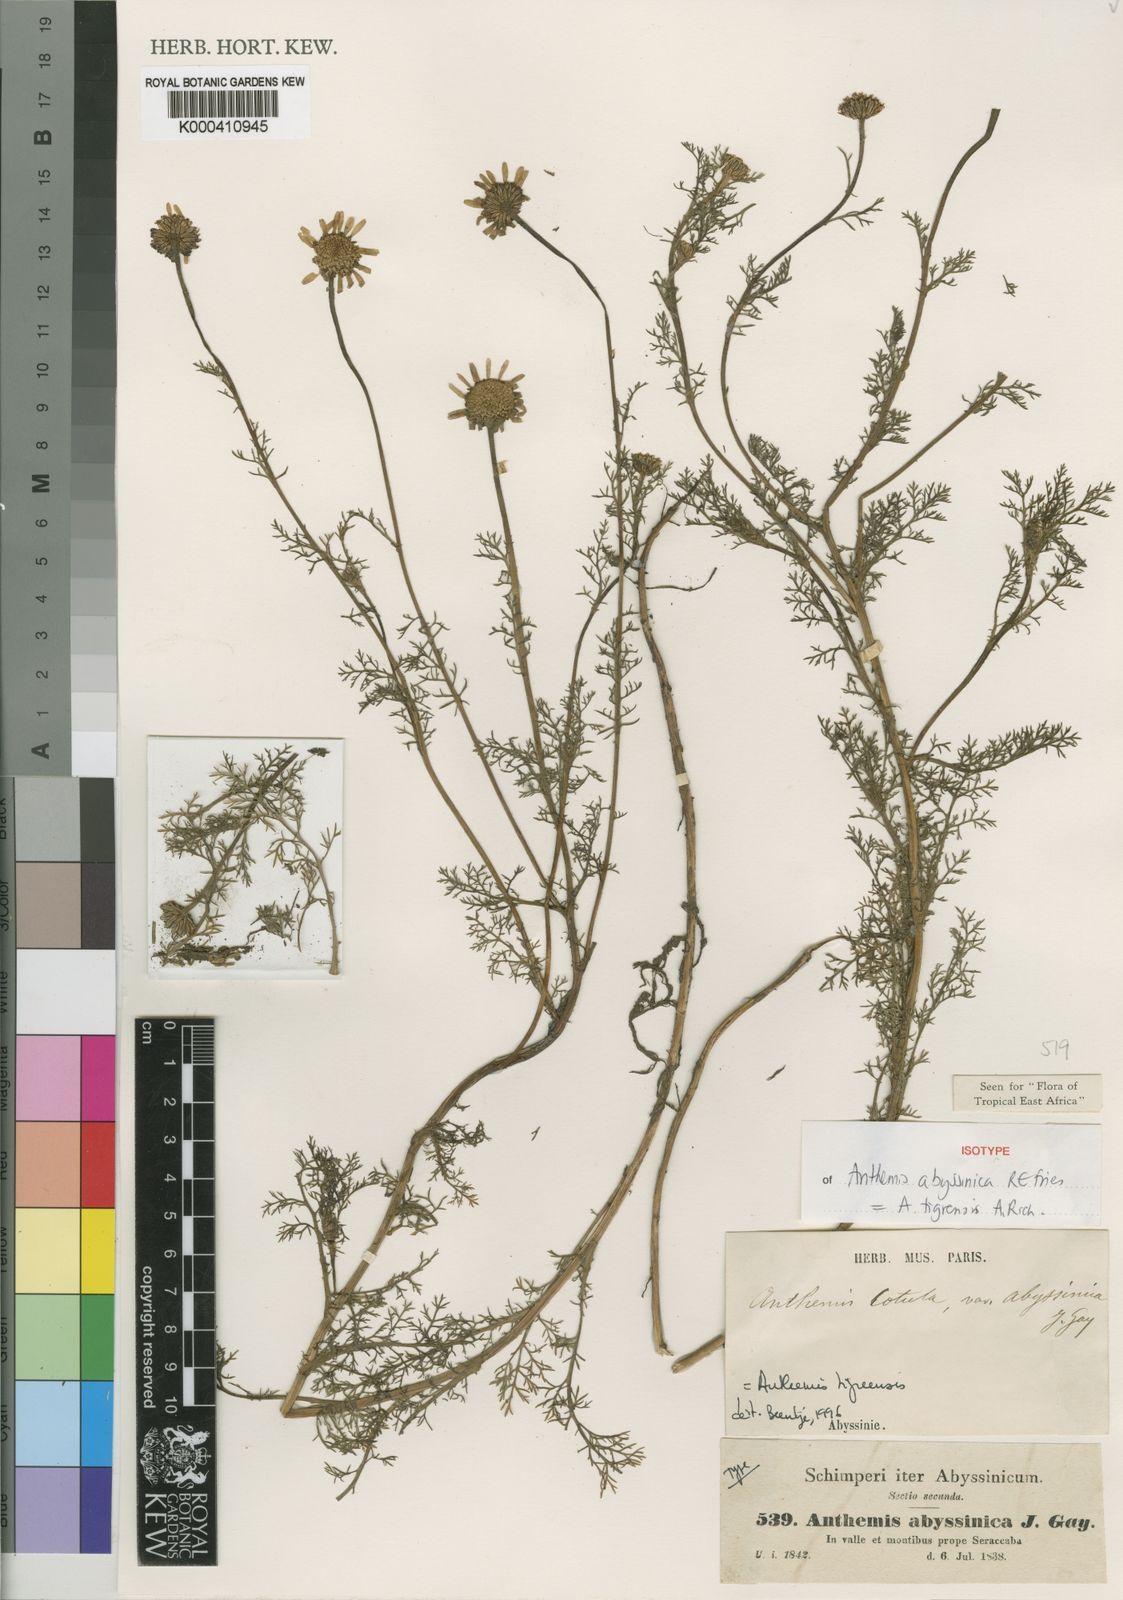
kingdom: Plantae
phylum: Tracheophyta
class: Magnoliopsida
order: Asterales
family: Asteraceae
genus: Eclipta
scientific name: Eclipta alba
